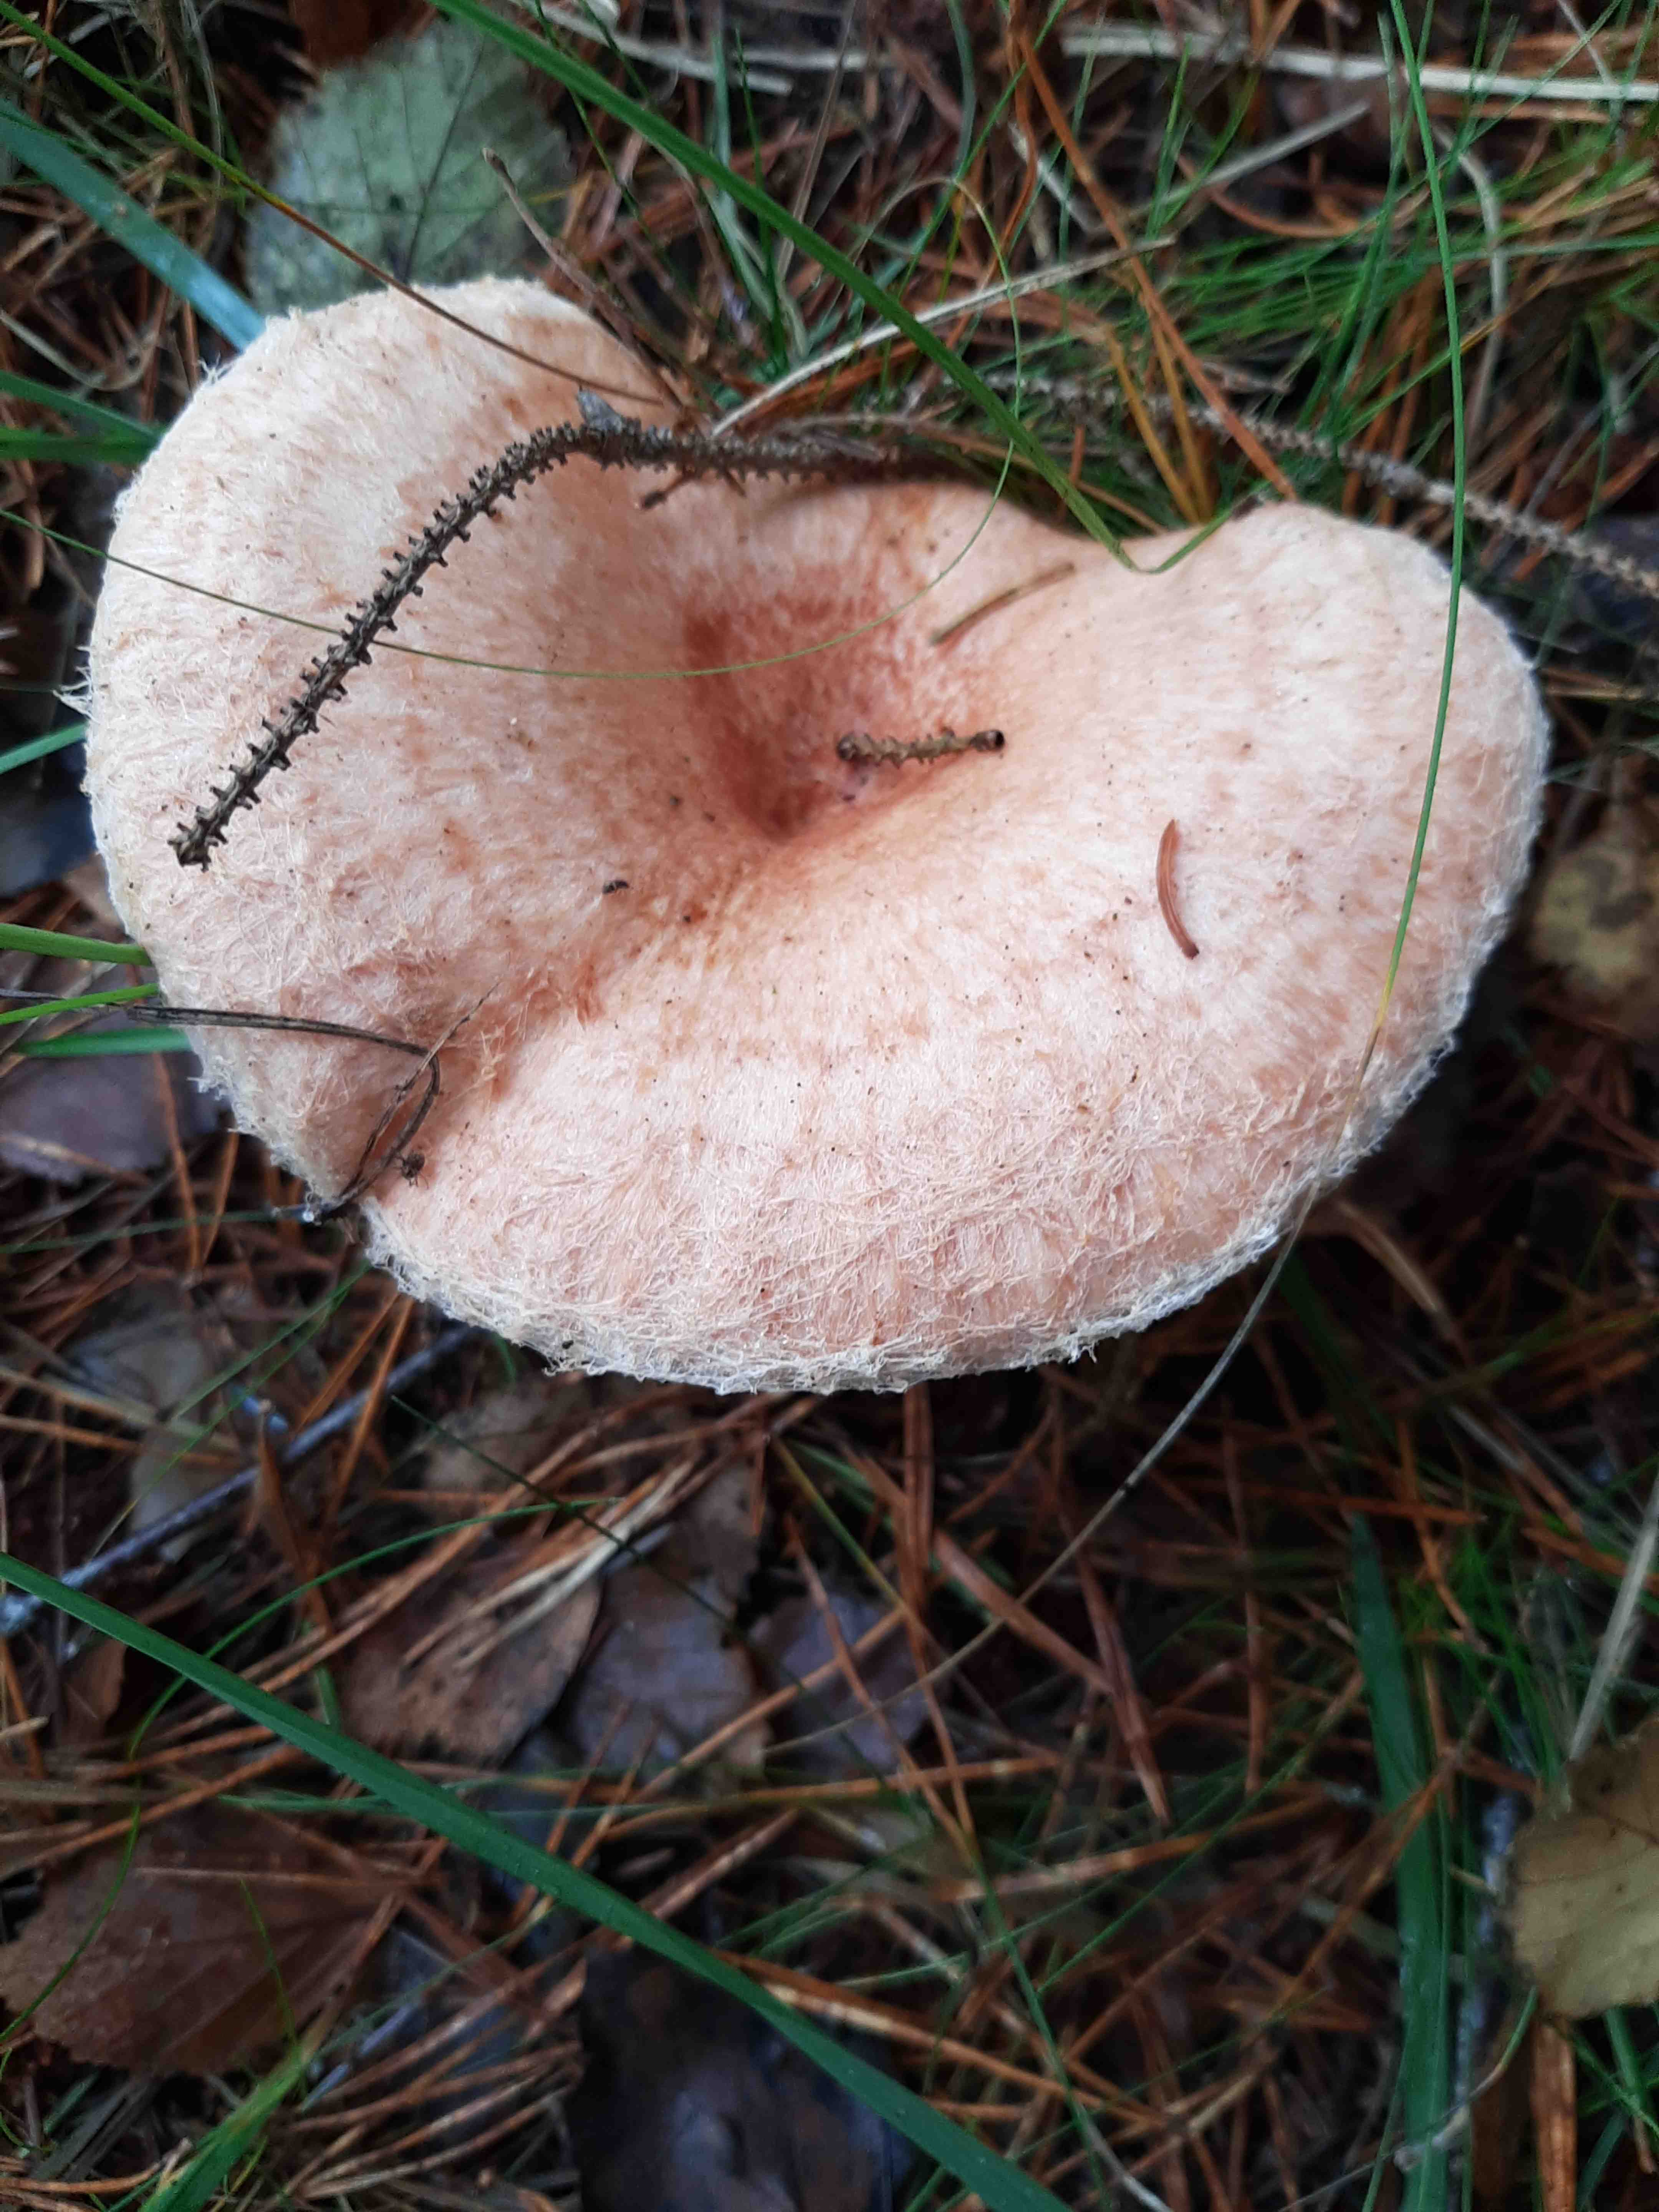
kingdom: Fungi
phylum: Basidiomycota
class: Agaricomycetes
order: Russulales
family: Russulaceae
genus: Lactarius
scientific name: Lactarius torminosus
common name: skægget mælkehat
